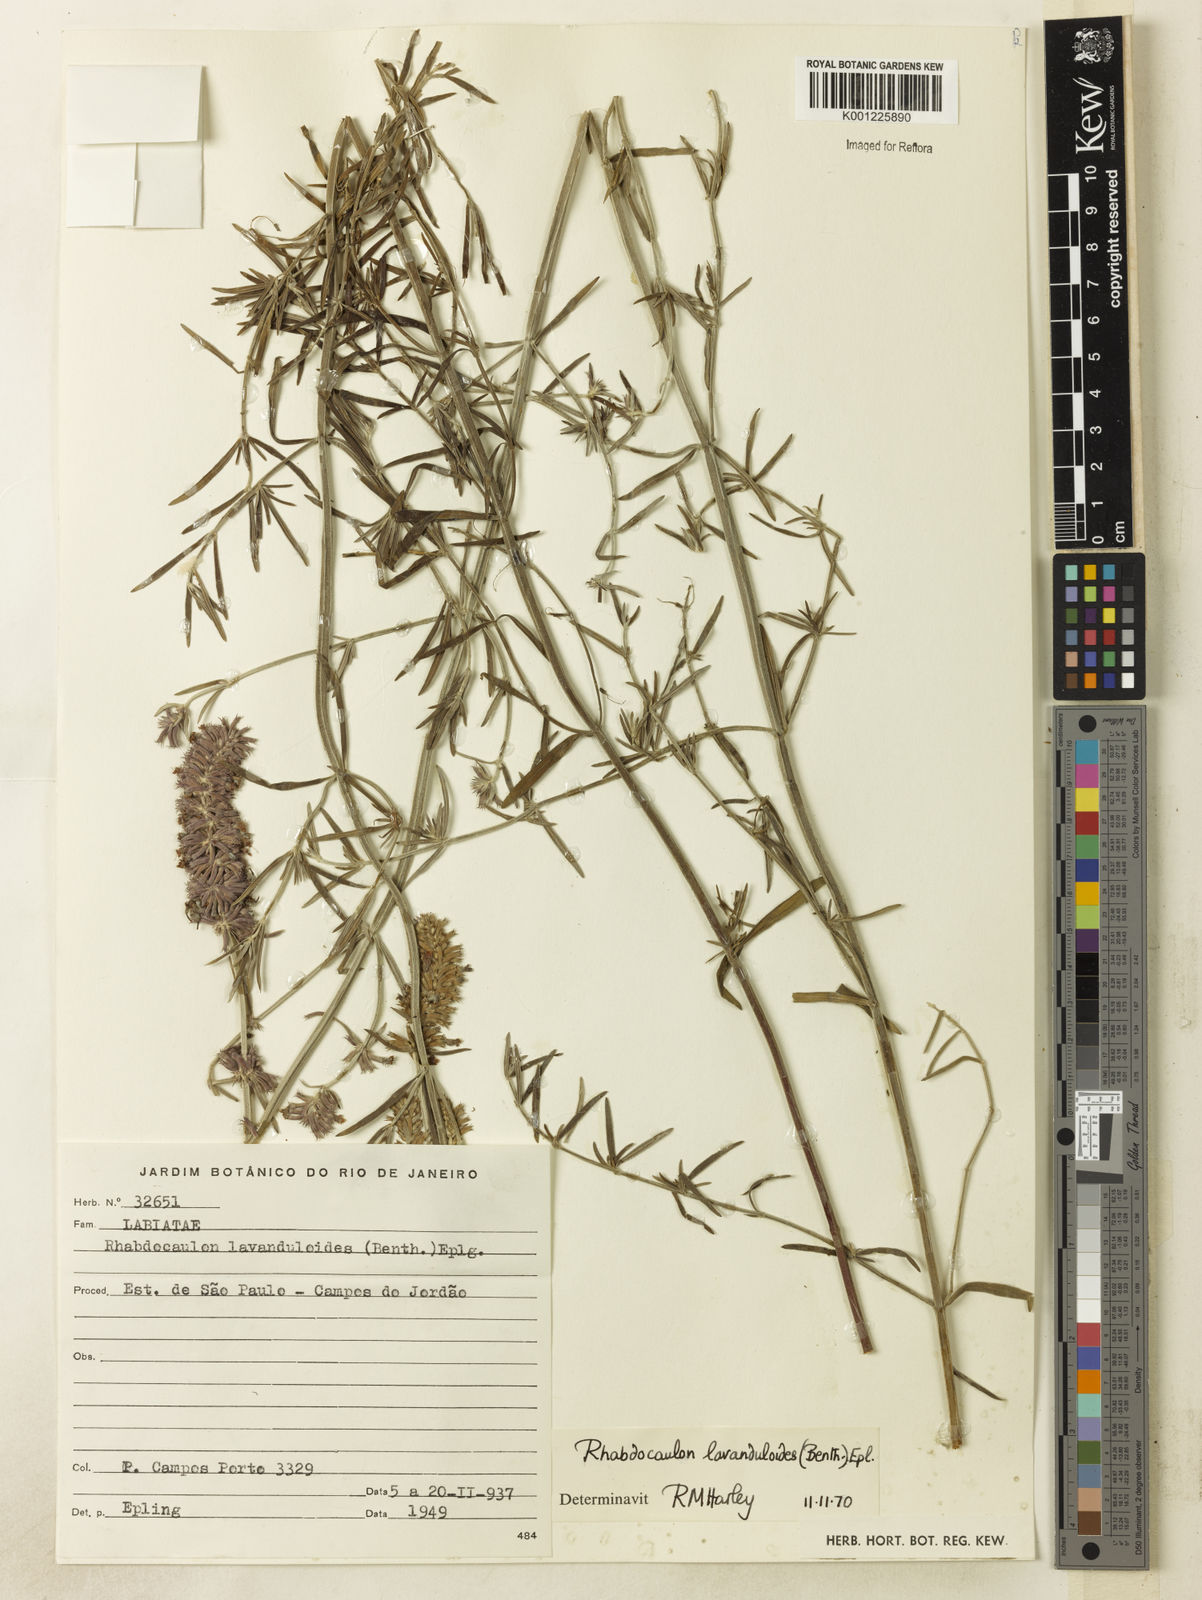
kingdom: Plantae
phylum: Tracheophyta
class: Magnoliopsida
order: Lamiales
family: Lamiaceae
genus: Rhabdocaulon
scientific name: Rhabdocaulon lavanduloides
